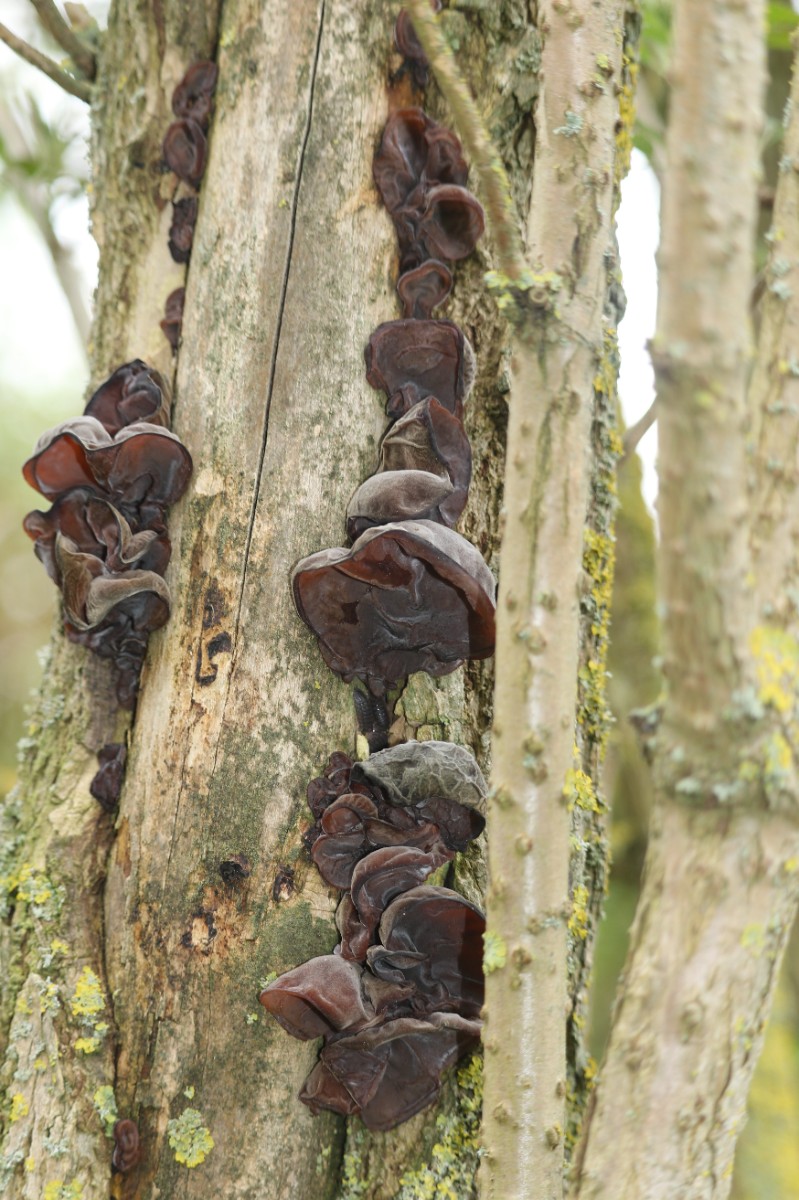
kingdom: Fungi
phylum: Basidiomycota
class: Agaricomycetes
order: Auriculariales
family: Auriculariaceae
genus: Auricularia
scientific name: Auricularia
